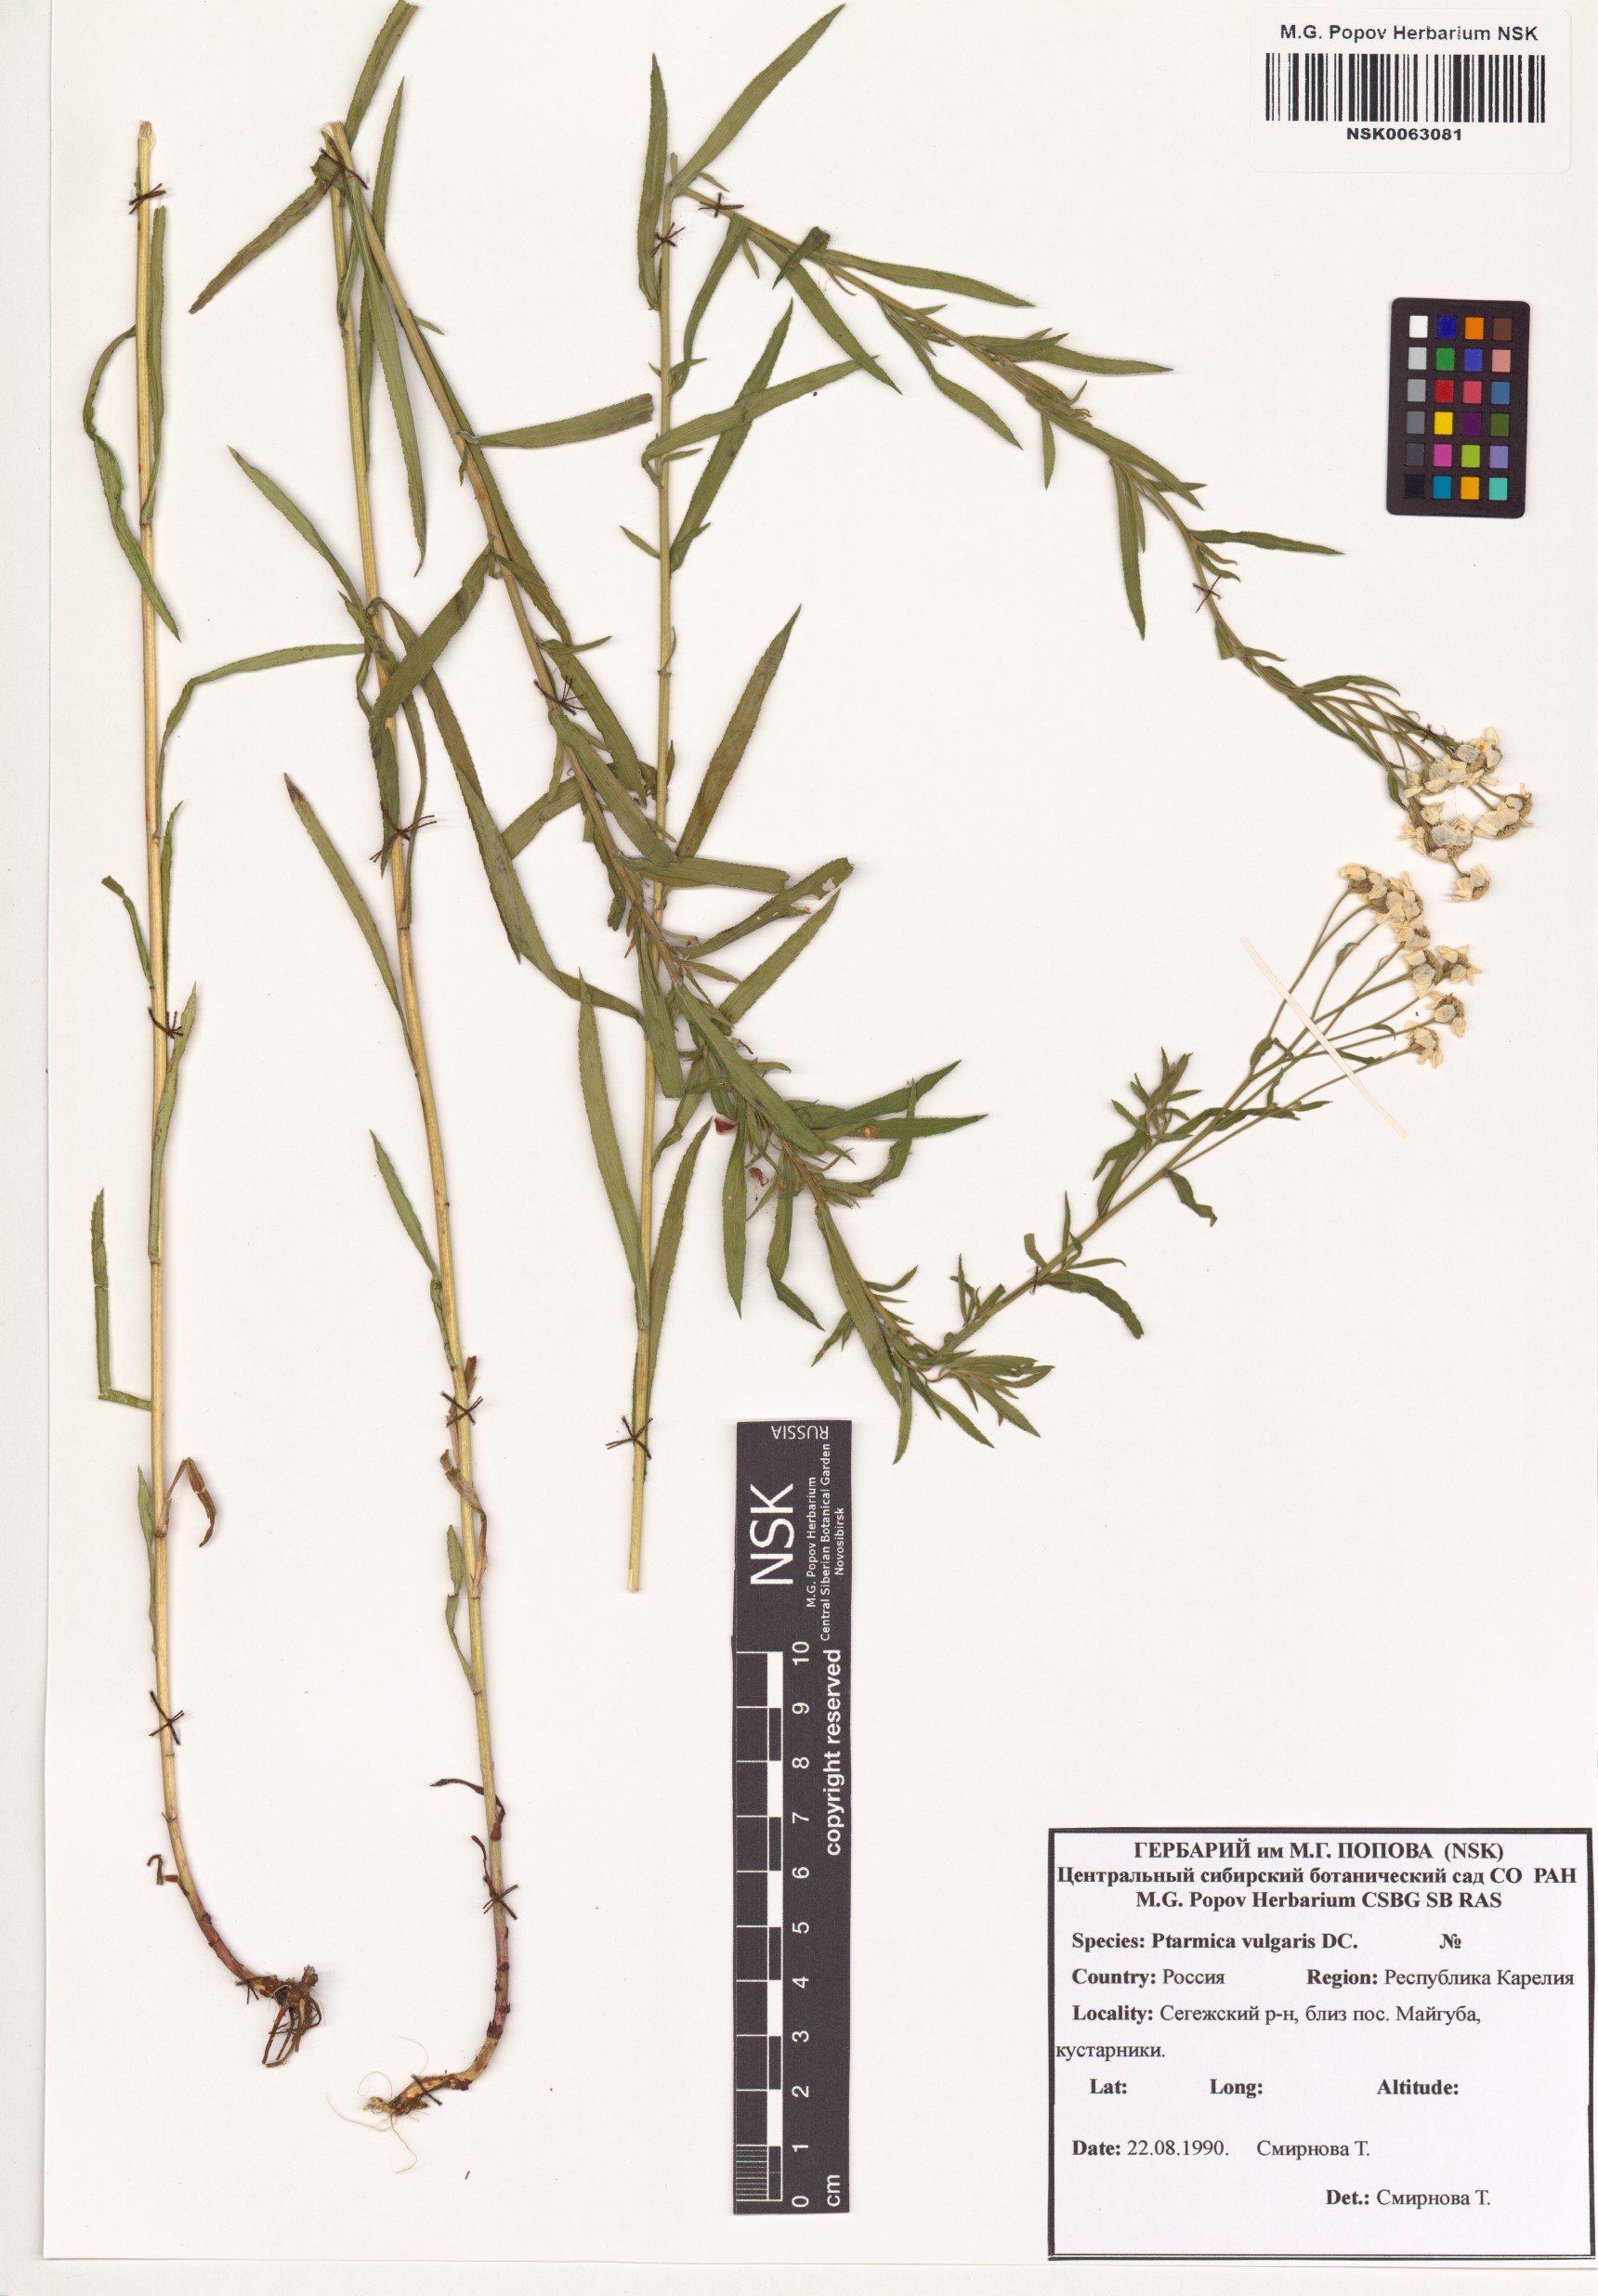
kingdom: Plantae
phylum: Tracheophyta
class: Magnoliopsida
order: Asterales
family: Asteraceae
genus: Achillea
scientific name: Achillea ptarmica
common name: Sneezeweed
